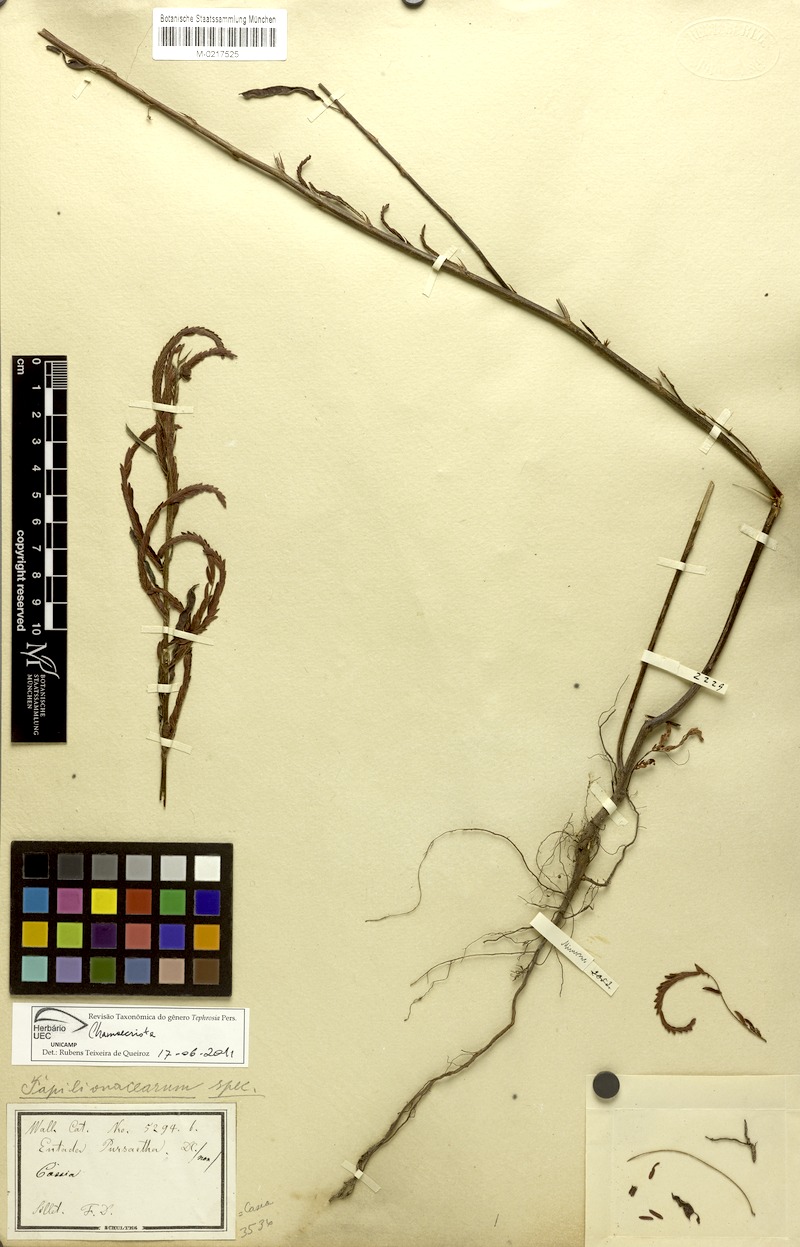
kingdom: Plantae
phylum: Tracheophyta
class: Magnoliopsida
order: Fabales
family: Fabaceae
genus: Entada
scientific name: Entada rheedei
